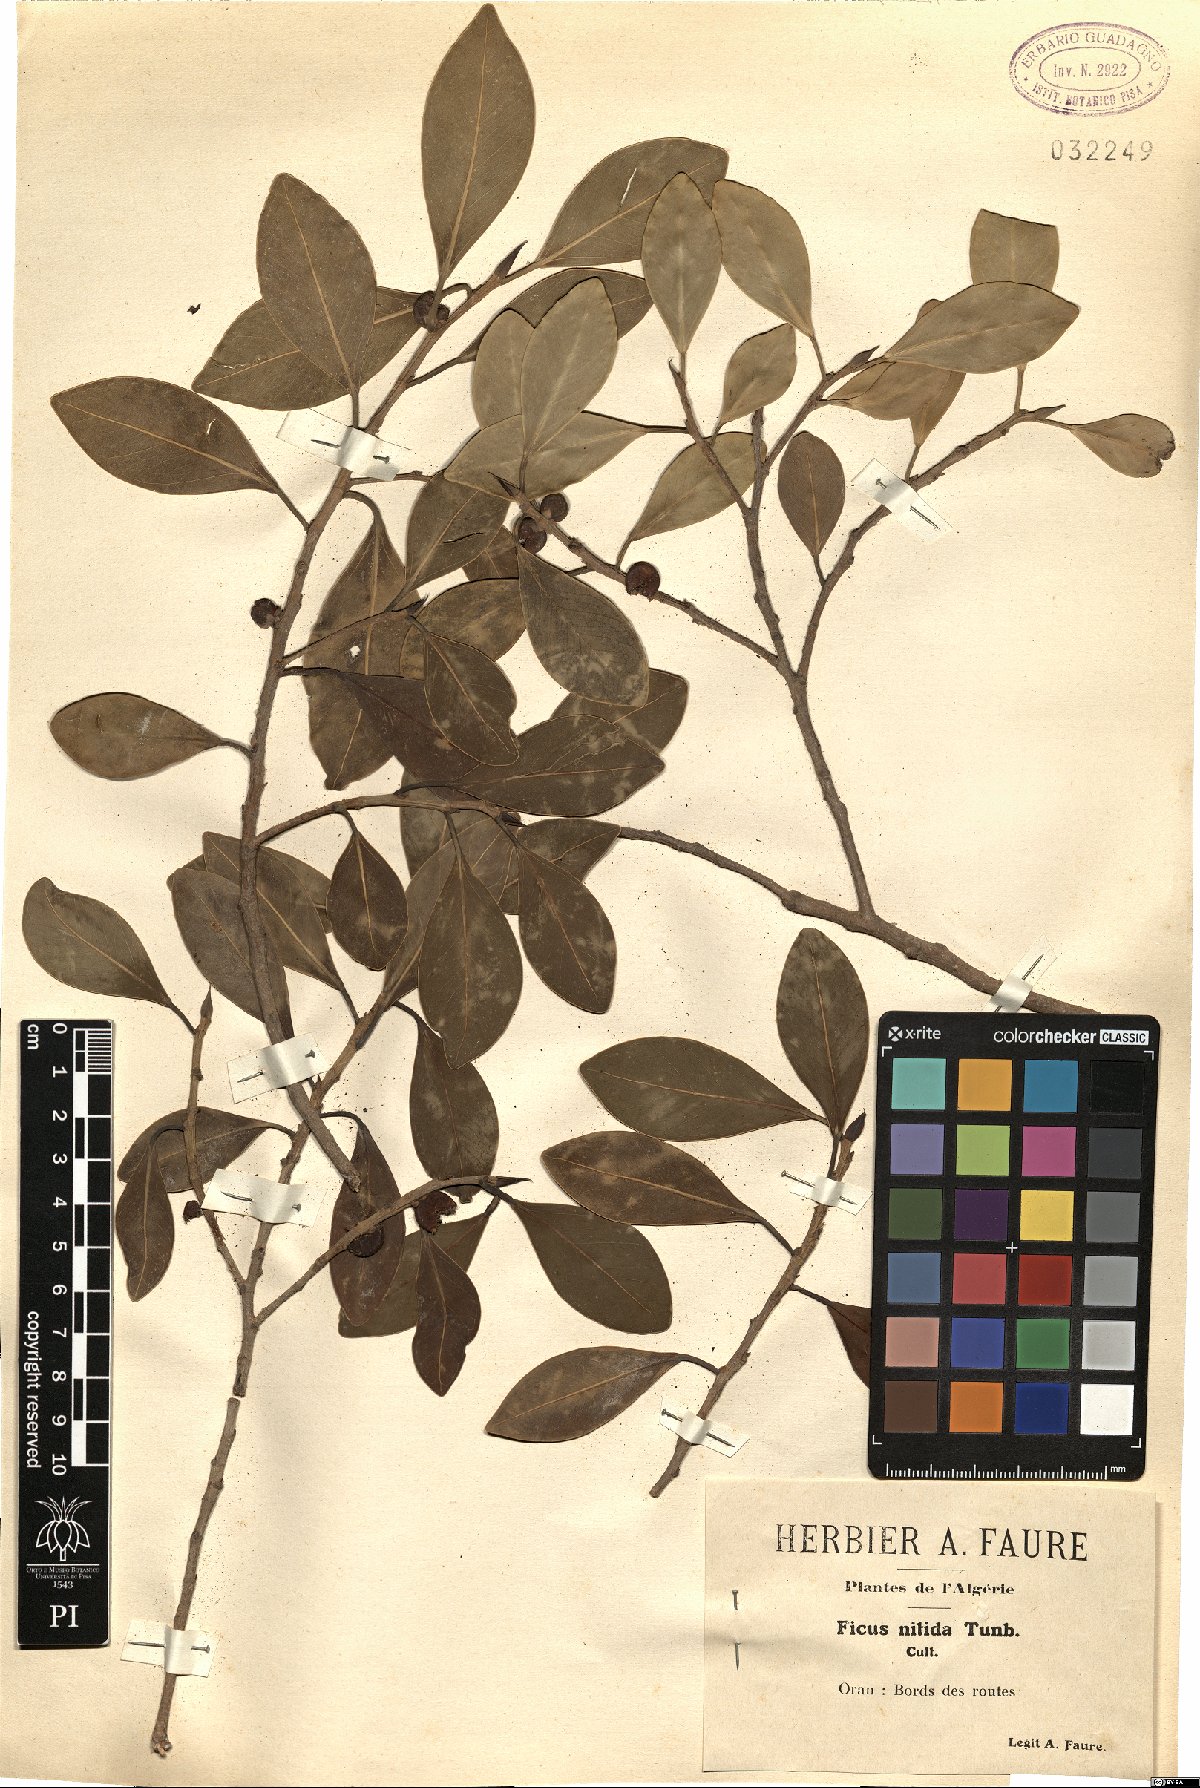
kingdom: Plantae
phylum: Tracheophyta
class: Magnoliopsida
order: Rosales
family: Moraceae
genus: Ficus
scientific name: Ficus benjamina
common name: Weeping fig
